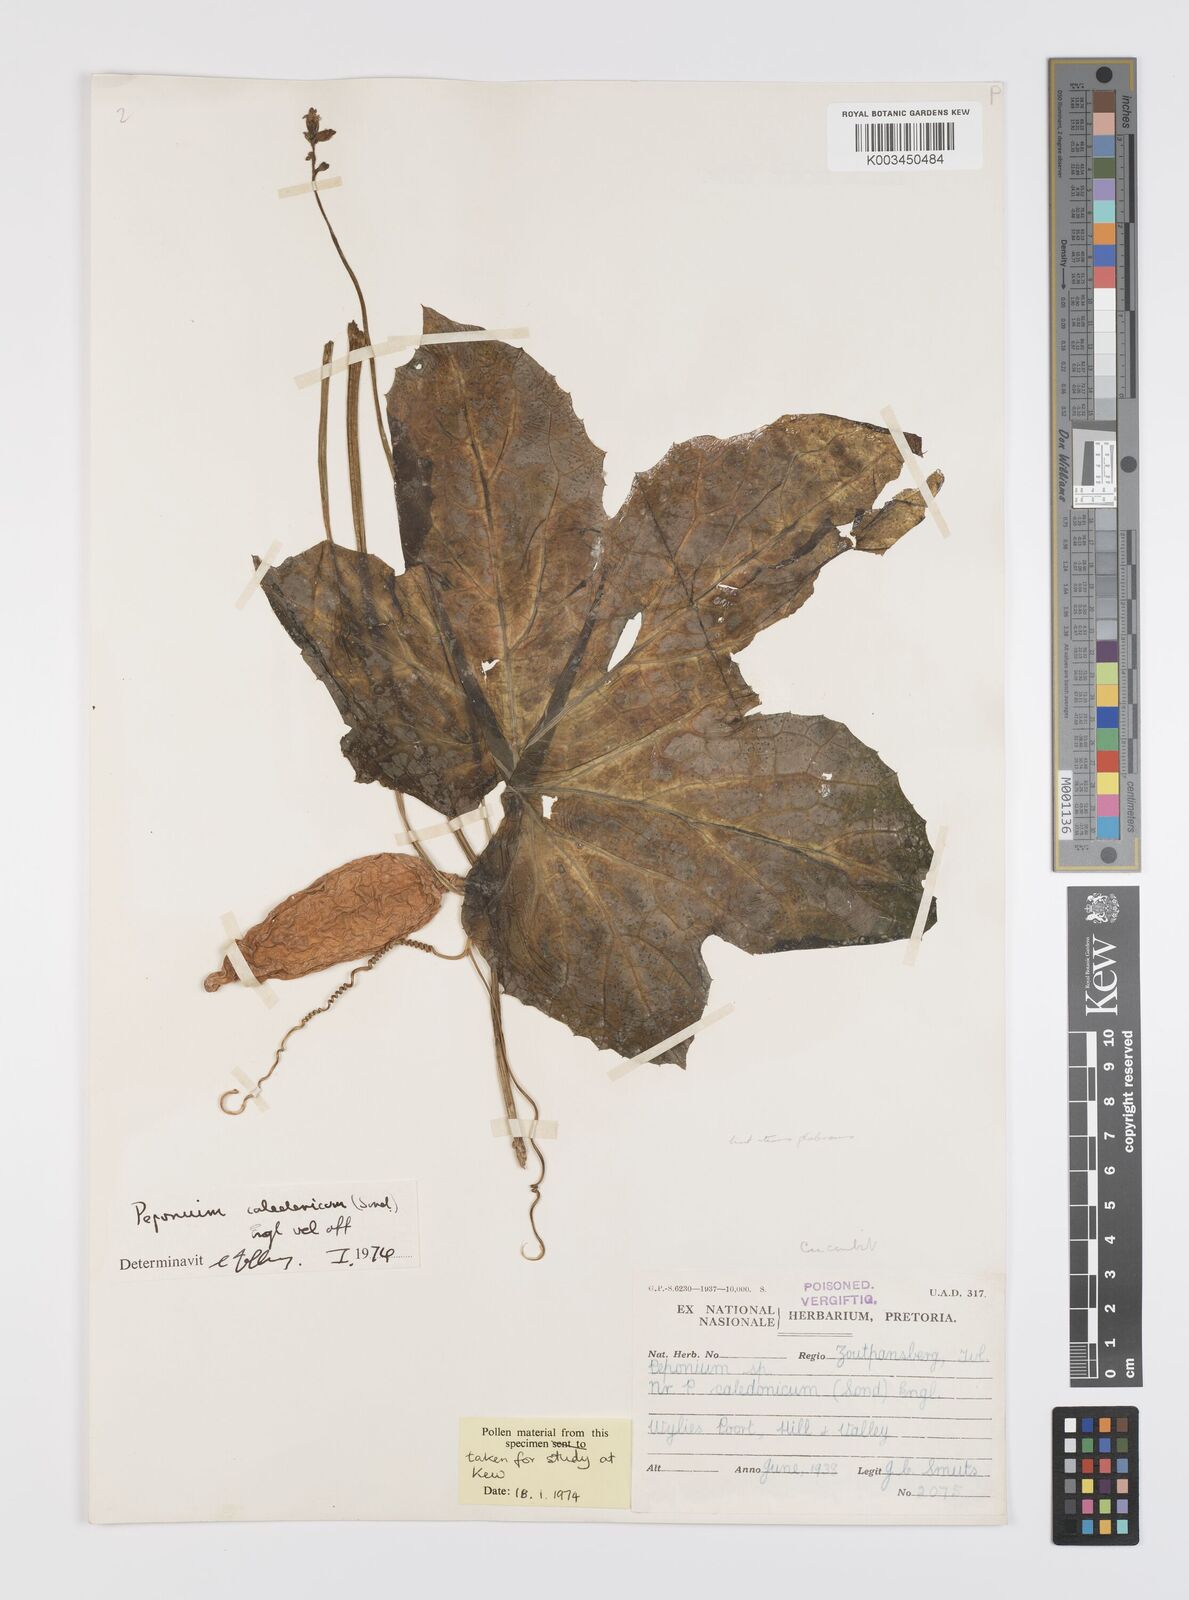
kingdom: Plantae
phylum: Tracheophyta
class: Magnoliopsida
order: Cucurbitales
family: Cucurbitaceae
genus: Peponium
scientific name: Peponium caledonicum
